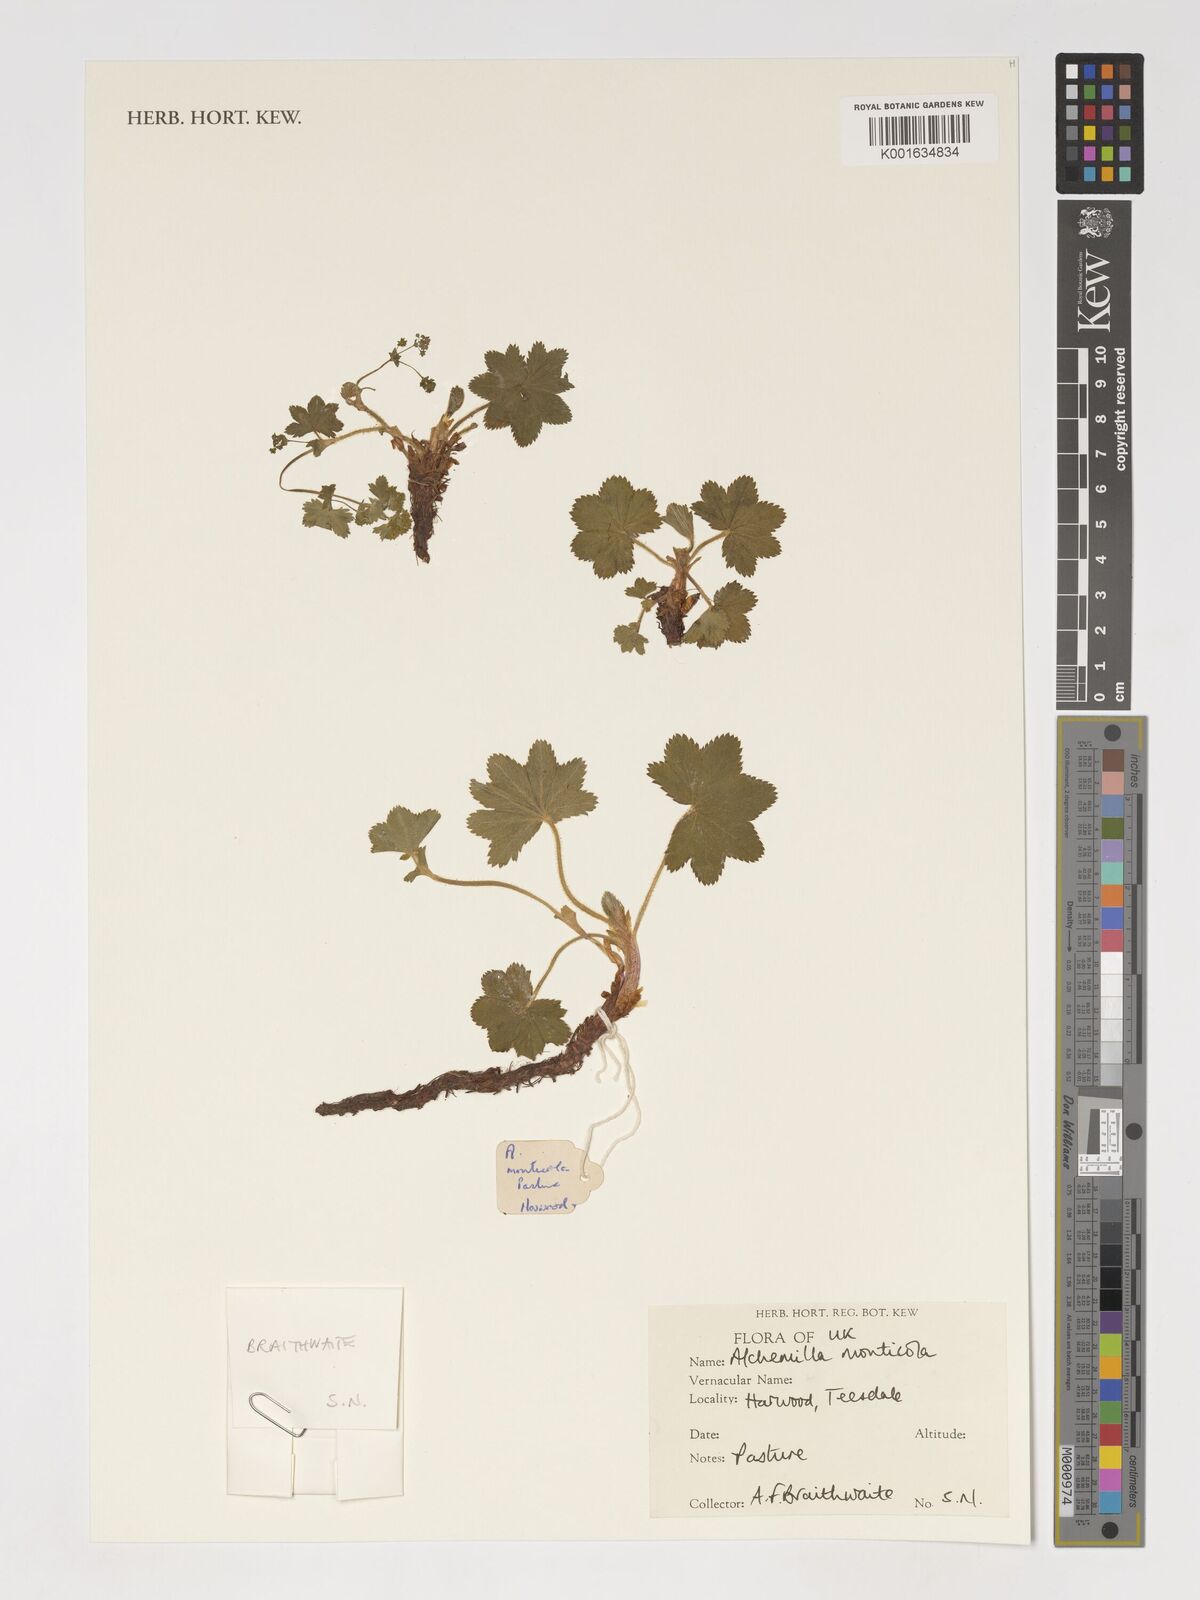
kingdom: Plantae
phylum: Tracheophyta
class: Magnoliopsida
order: Rosales
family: Rosaceae
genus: Alchemilla
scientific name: Alchemilla monticola
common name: Hairy lady's mantle
